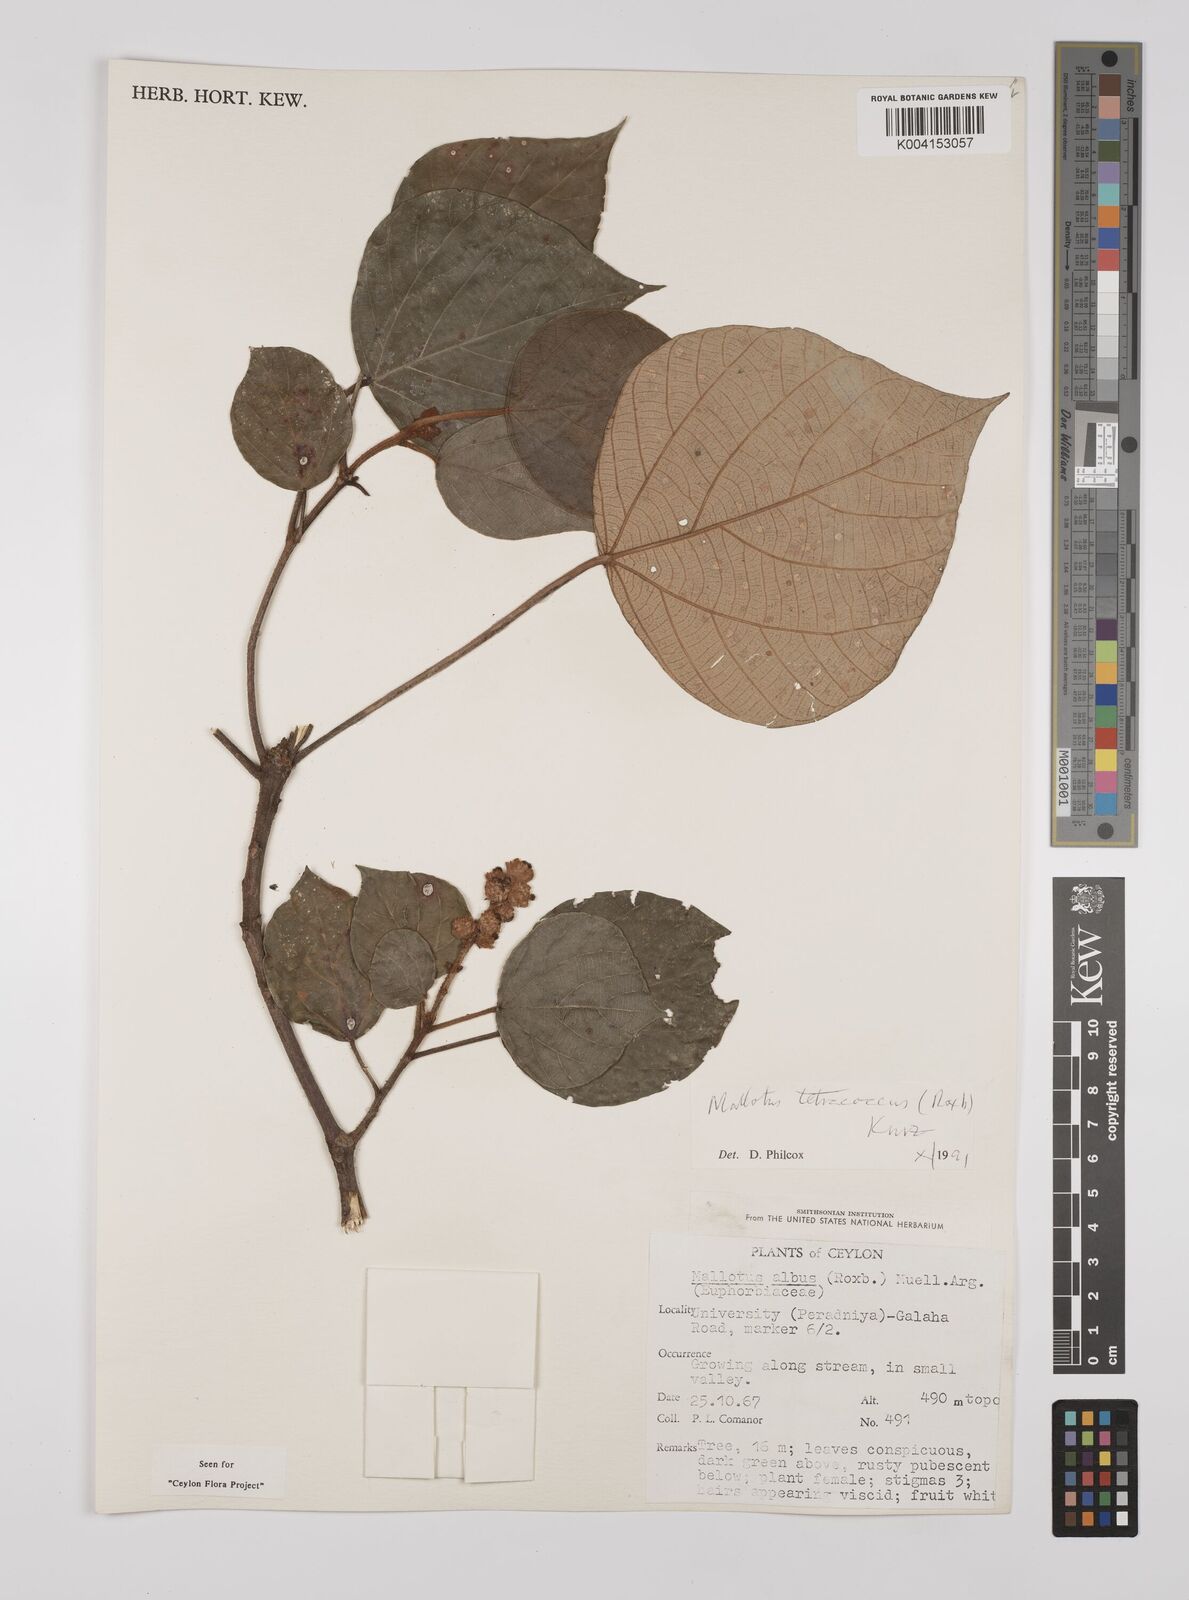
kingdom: Plantae
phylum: Tracheophyta
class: Magnoliopsida
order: Malpighiales
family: Euphorbiaceae
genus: Mallotus
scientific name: Mallotus tetracoccus
